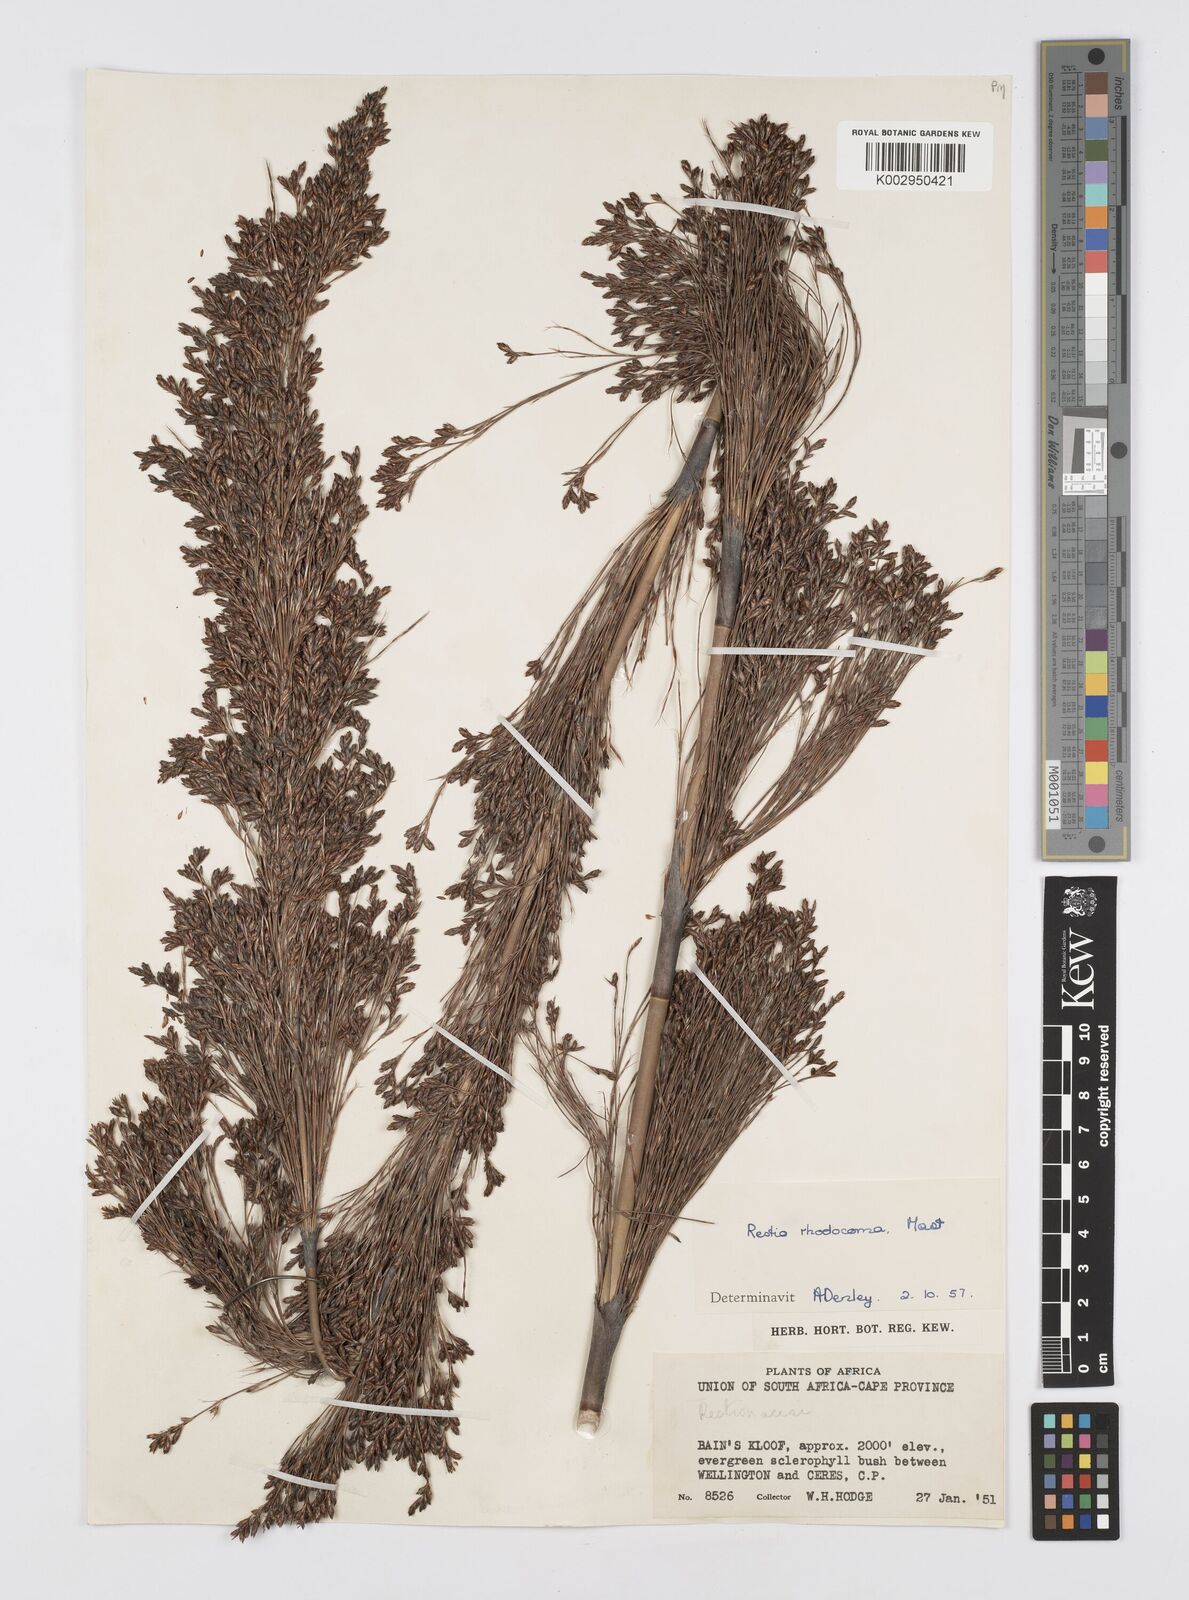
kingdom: Plantae
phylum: Tracheophyta
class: Liliopsida
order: Poales
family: Restionaceae
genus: Rhodocoma
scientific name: Rhodocoma capensis
